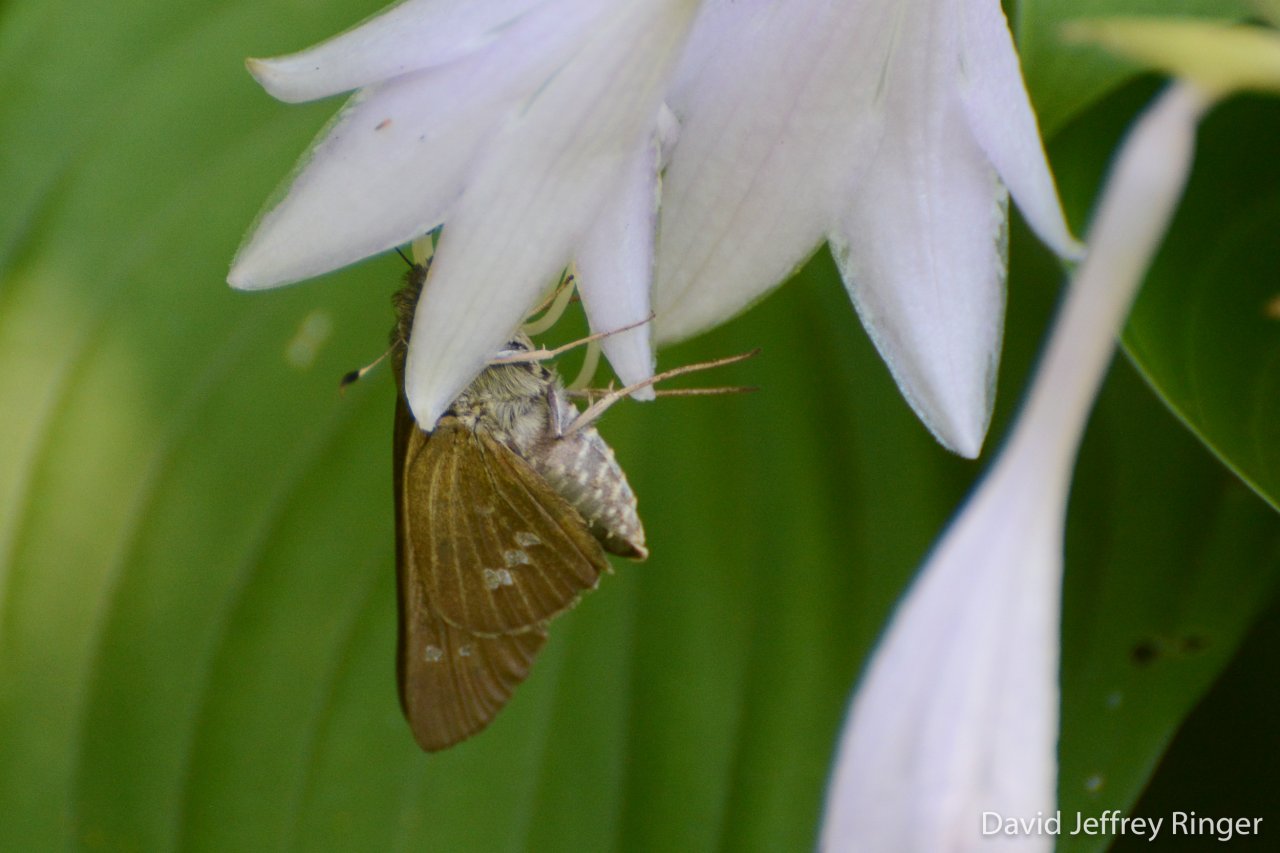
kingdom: Animalia
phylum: Arthropoda
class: Insecta
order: Lepidoptera
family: Hesperiidae
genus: Calpodes
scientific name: Calpodes ethlius
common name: Brazilian Skipper
